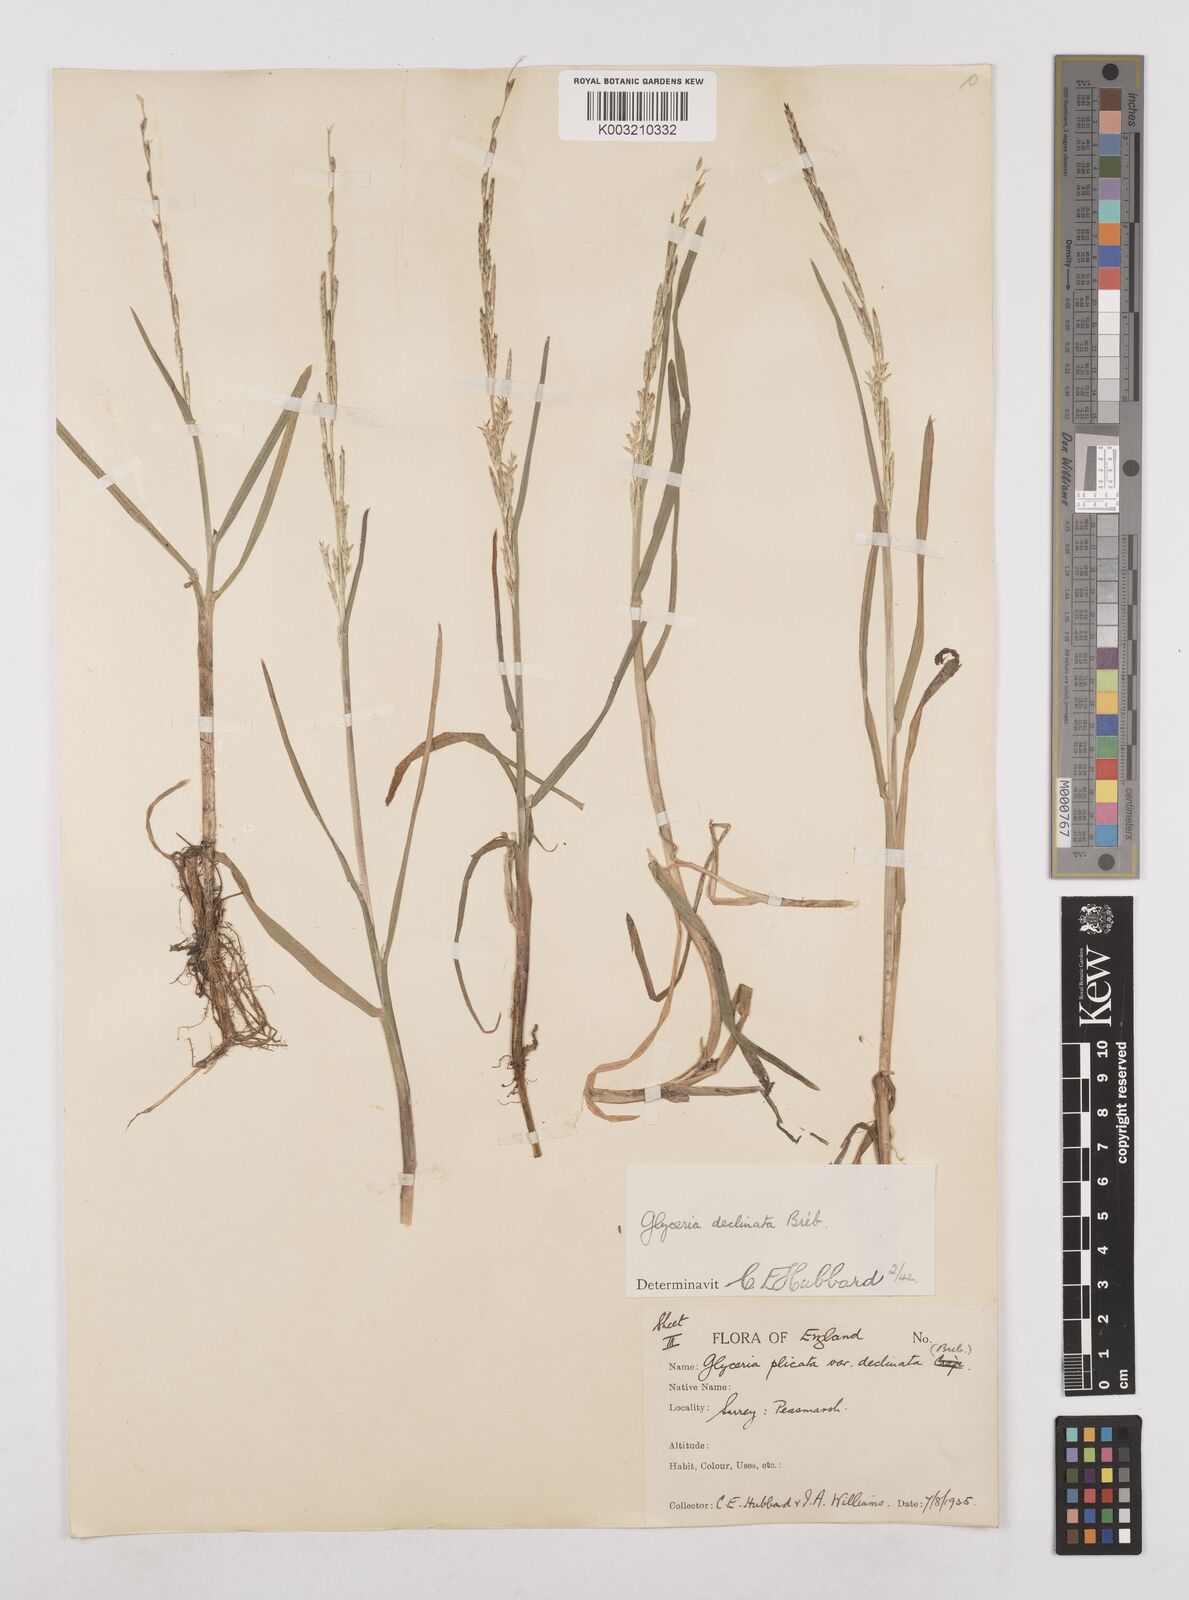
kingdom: Plantae
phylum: Tracheophyta
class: Liliopsida
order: Poales
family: Poaceae
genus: Glyceria
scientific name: Glyceria declinata
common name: Small sweet-grass
